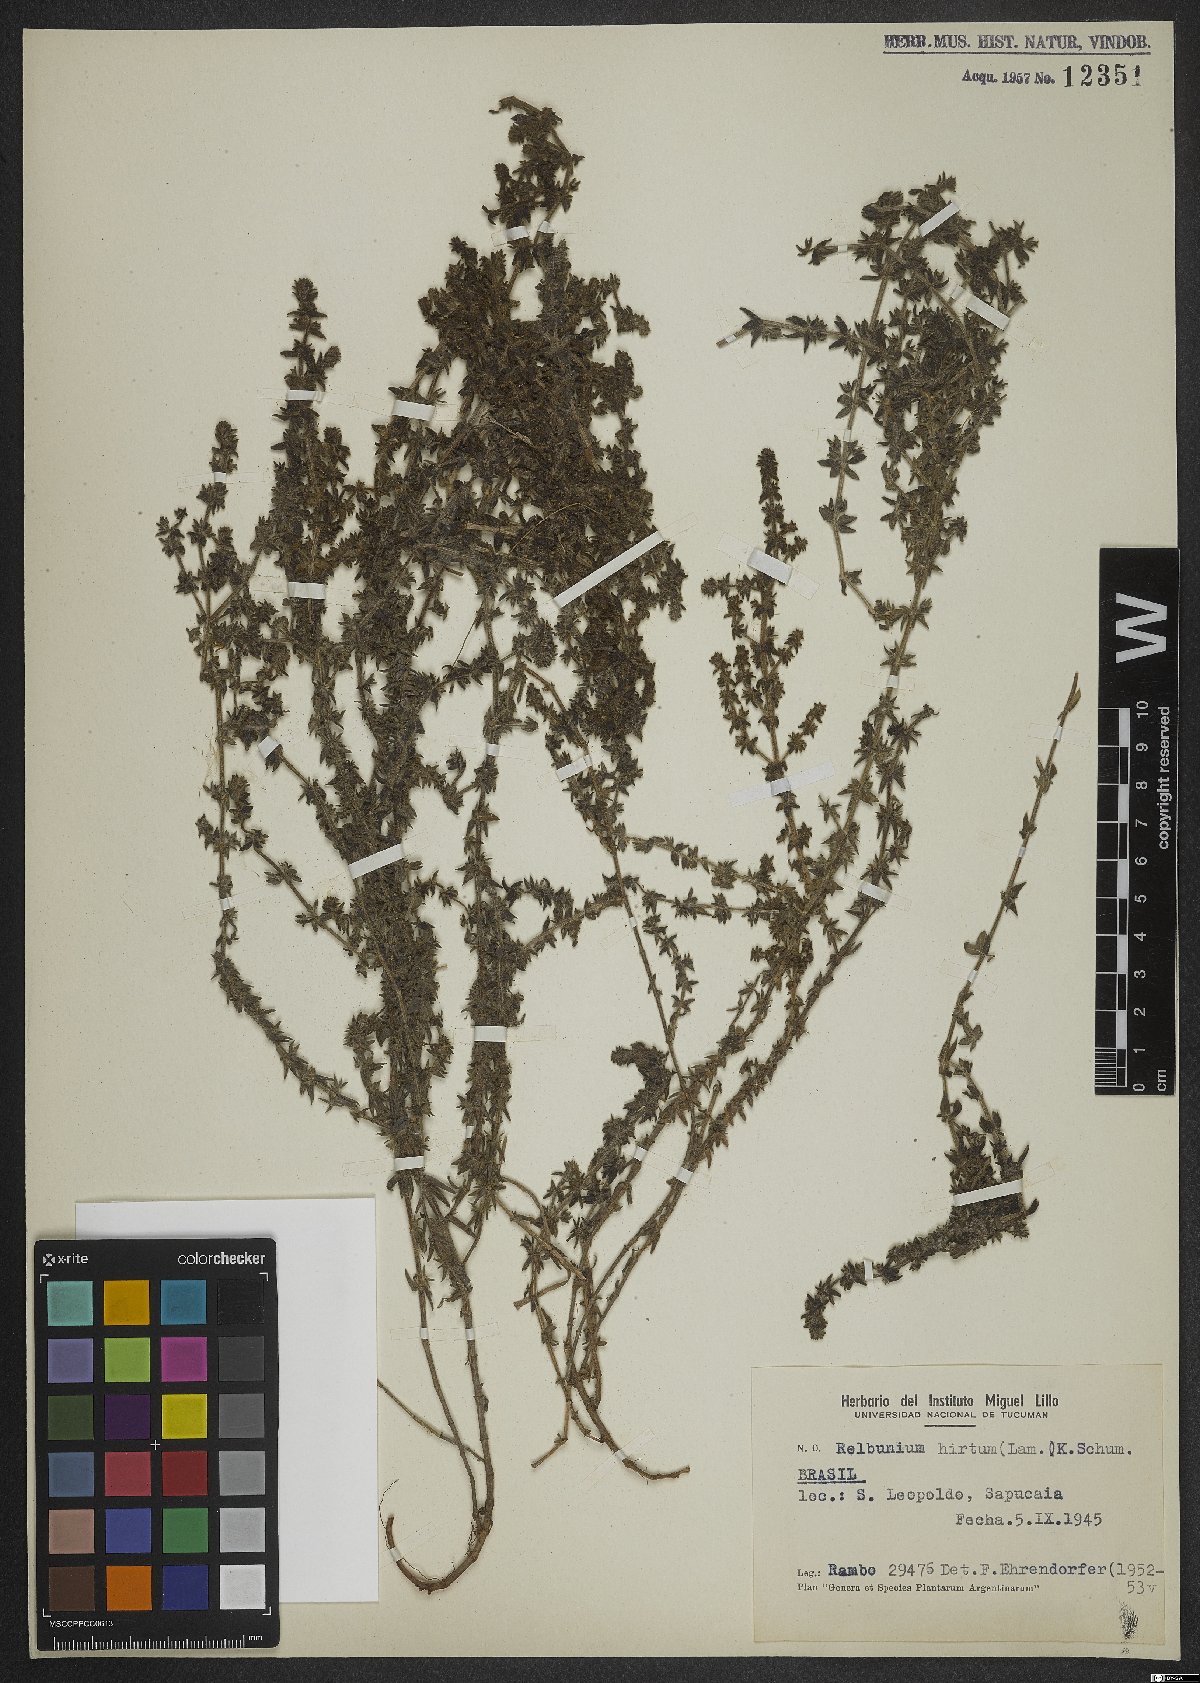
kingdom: Plantae
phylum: Tracheophyta
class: Magnoliopsida
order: Gentianales
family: Rubiaceae
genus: Galium
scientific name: Galium hirtum
